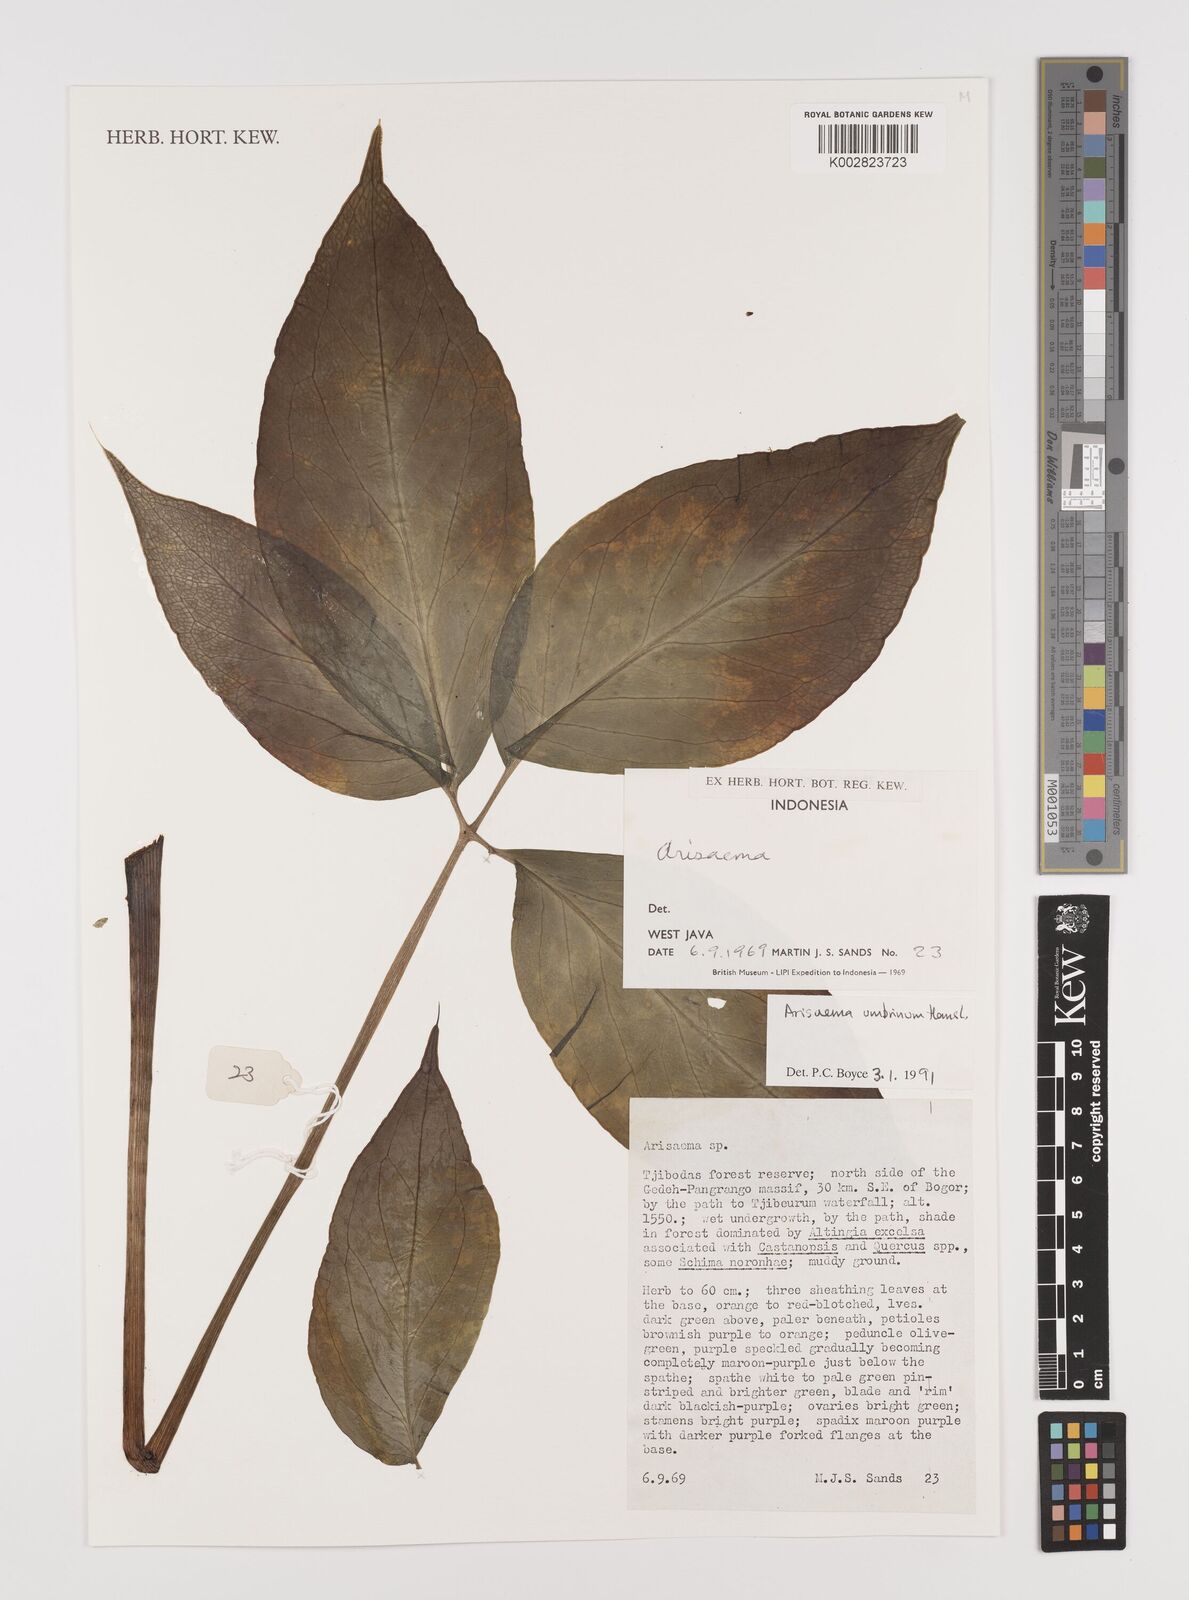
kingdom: Plantae
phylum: Tracheophyta
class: Liliopsida
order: Alismatales
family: Araceae
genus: Arisaema
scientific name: Arisaema umbrinum
